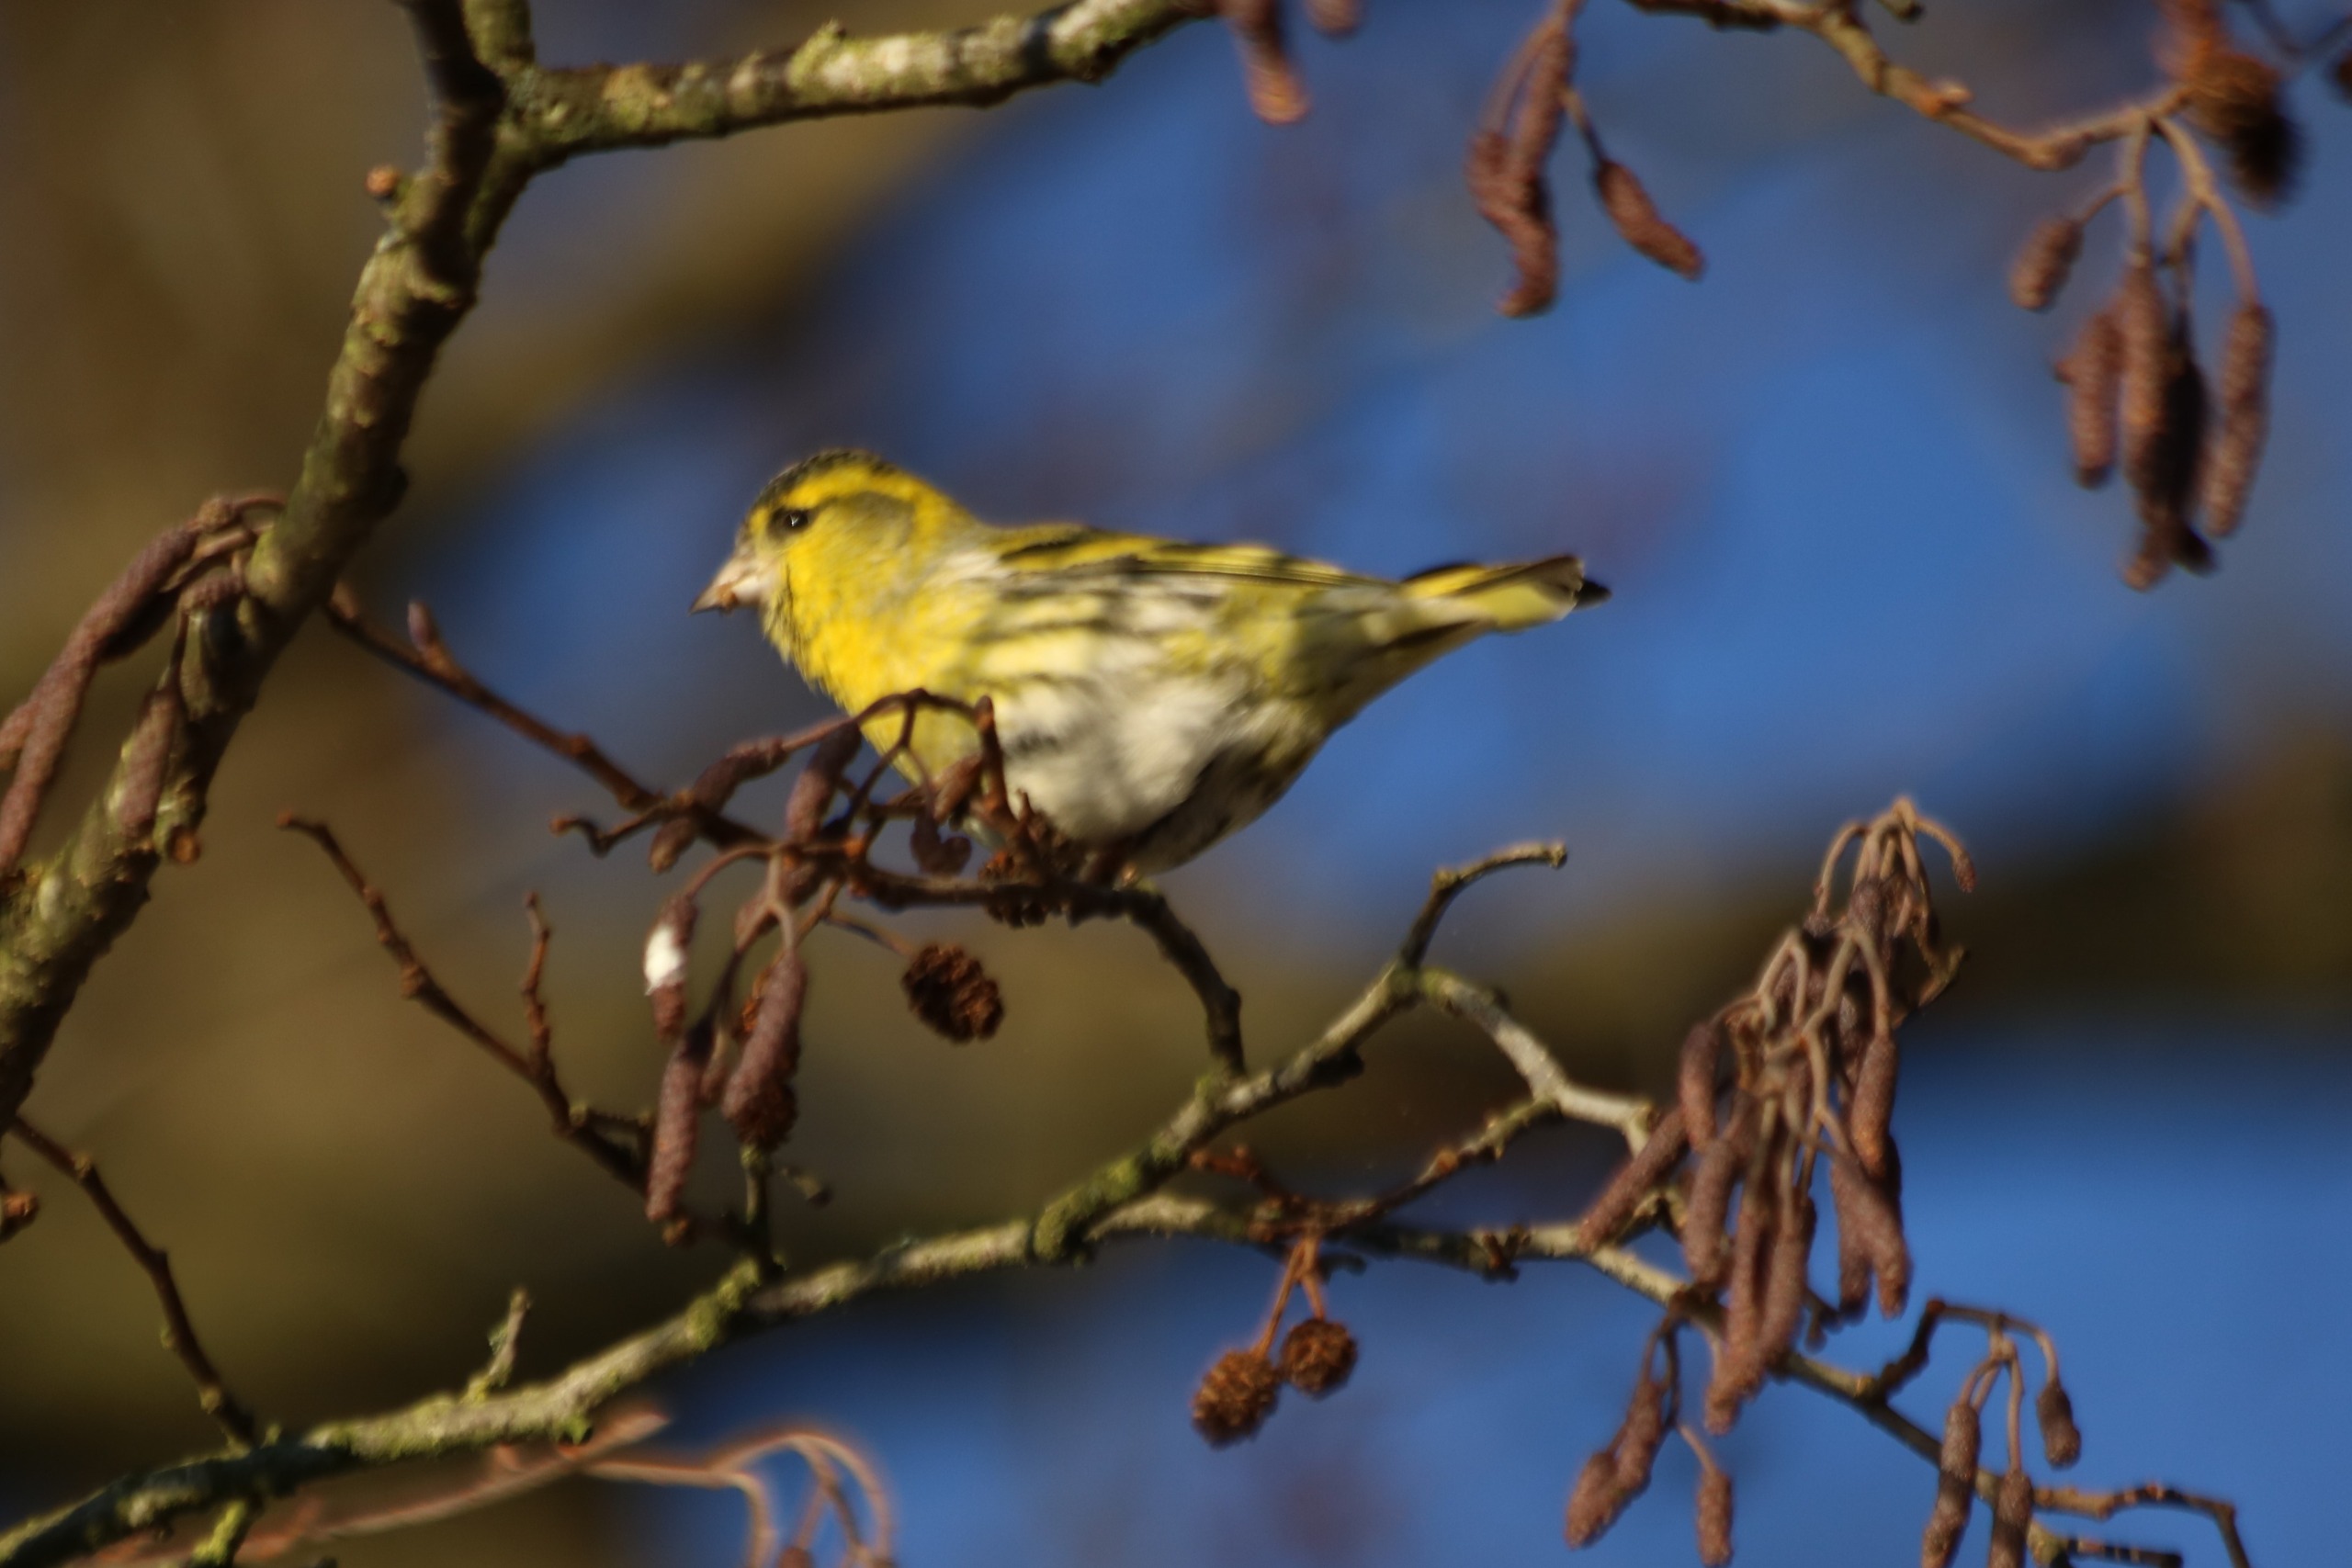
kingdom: Animalia
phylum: Chordata
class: Aves
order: Passeriformes
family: Fringillidae
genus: Spinus
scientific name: Spinus spinus
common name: Grønsisken
